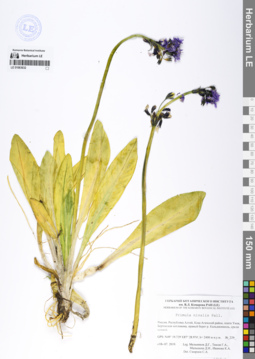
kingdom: Plantae
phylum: Tracheophyta
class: Magnoliopsida
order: Ericales
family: Primulaceae
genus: Primula
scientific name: Primula nivalis
